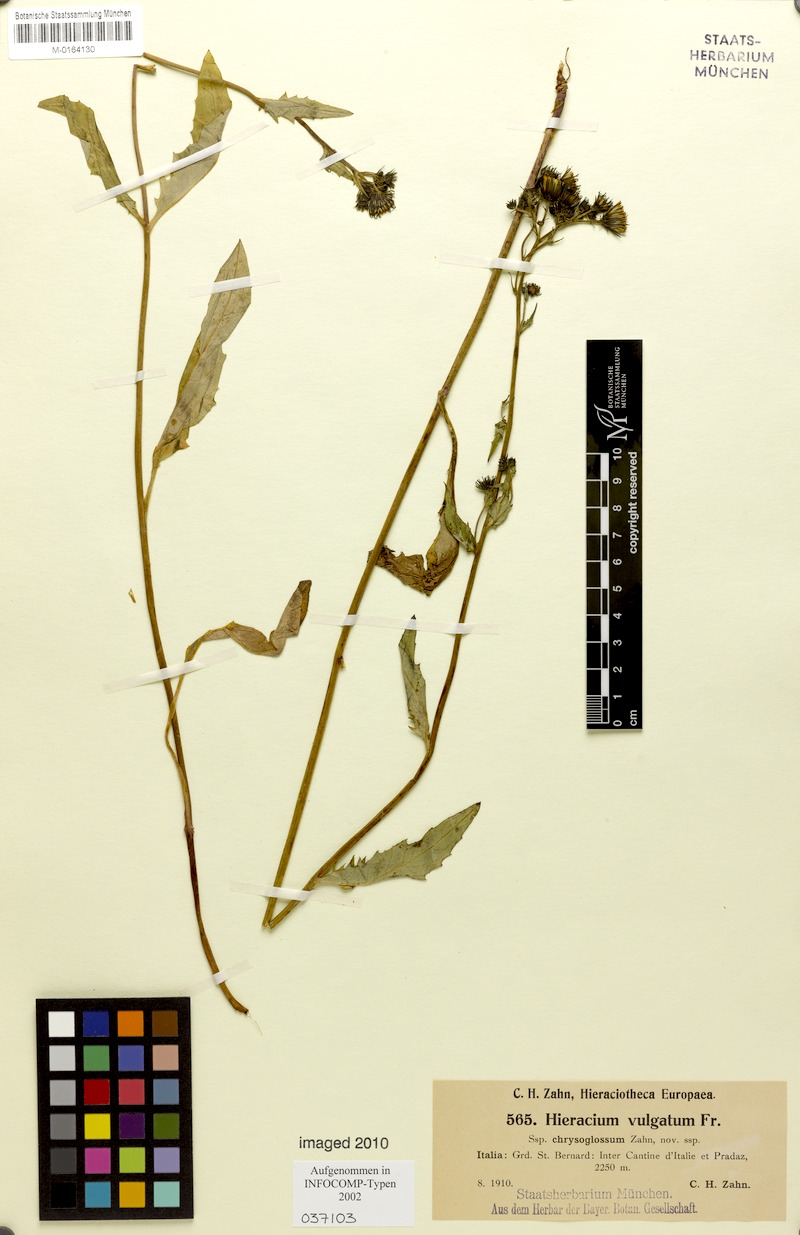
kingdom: Plantae
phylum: Tracheophyta
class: Magnoliopsida
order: Asterales
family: Asteraceae
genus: Hieracium
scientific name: Hieracium lachenalii
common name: Common hawkweed
